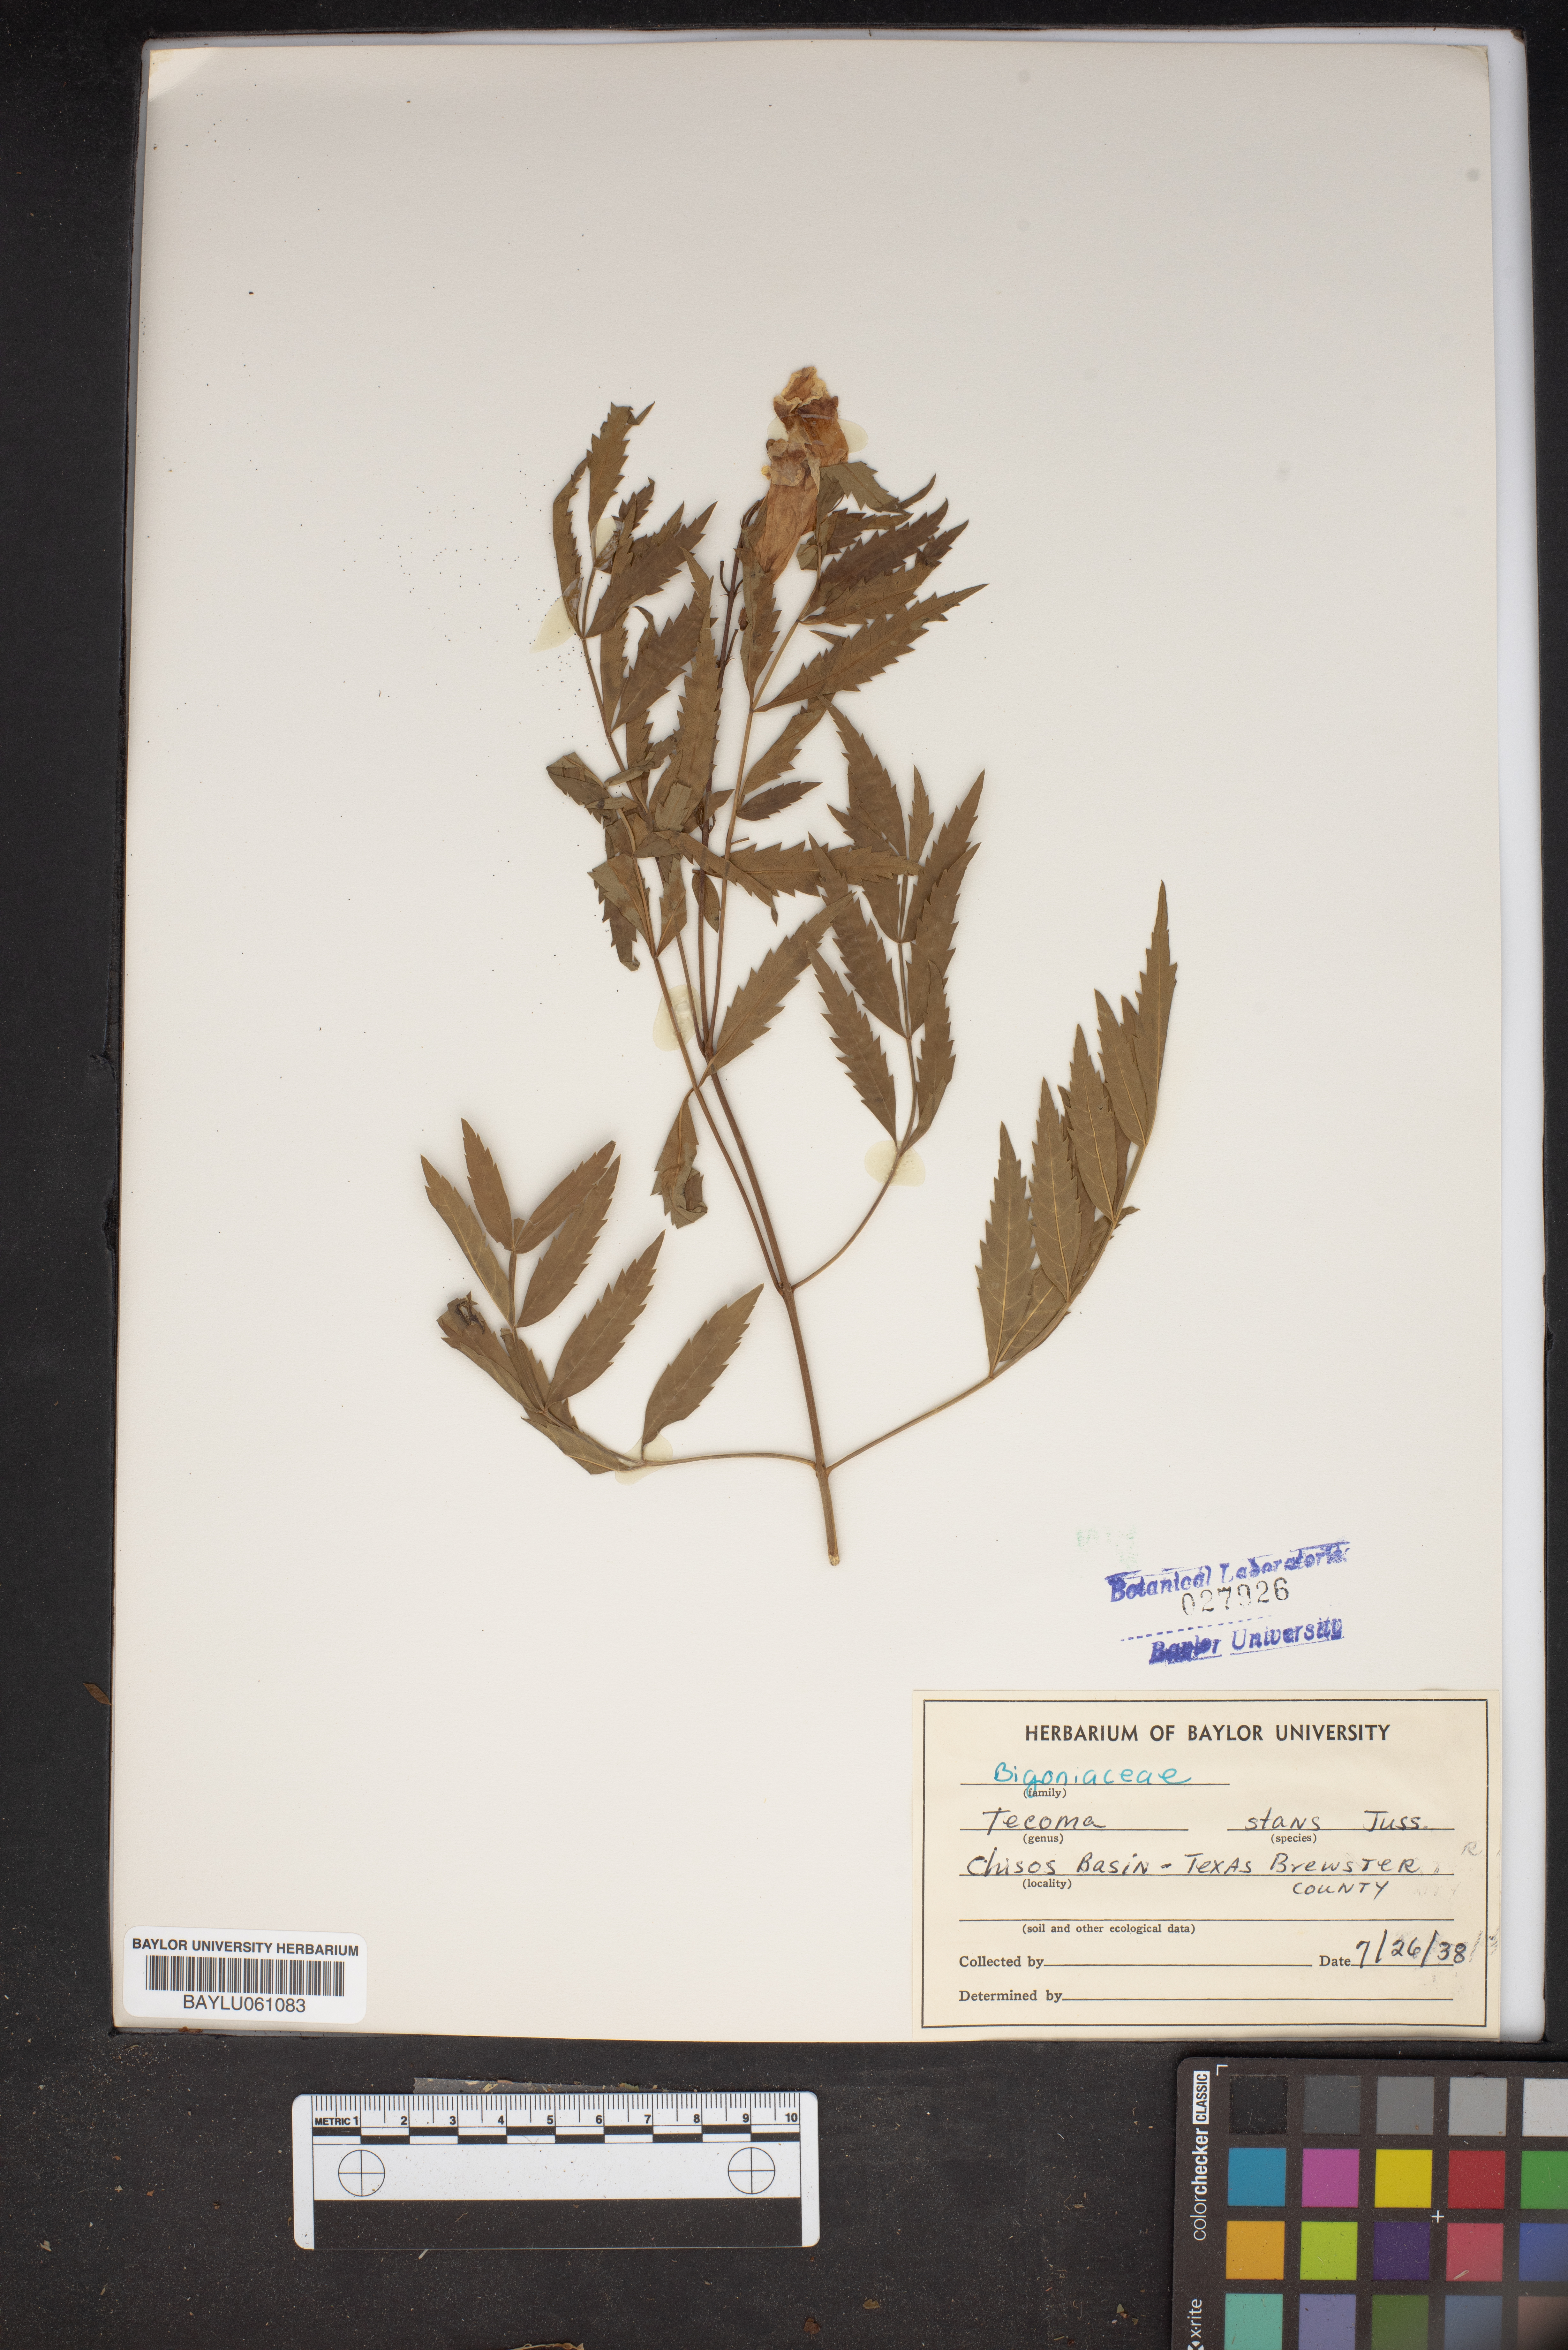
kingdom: Plantae
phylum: Tracheophyta
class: Magnoliopsida
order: Lamiales
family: Bignoniaceae
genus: Tecoma
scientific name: Tecoma stans
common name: Yellow trumpetbush
